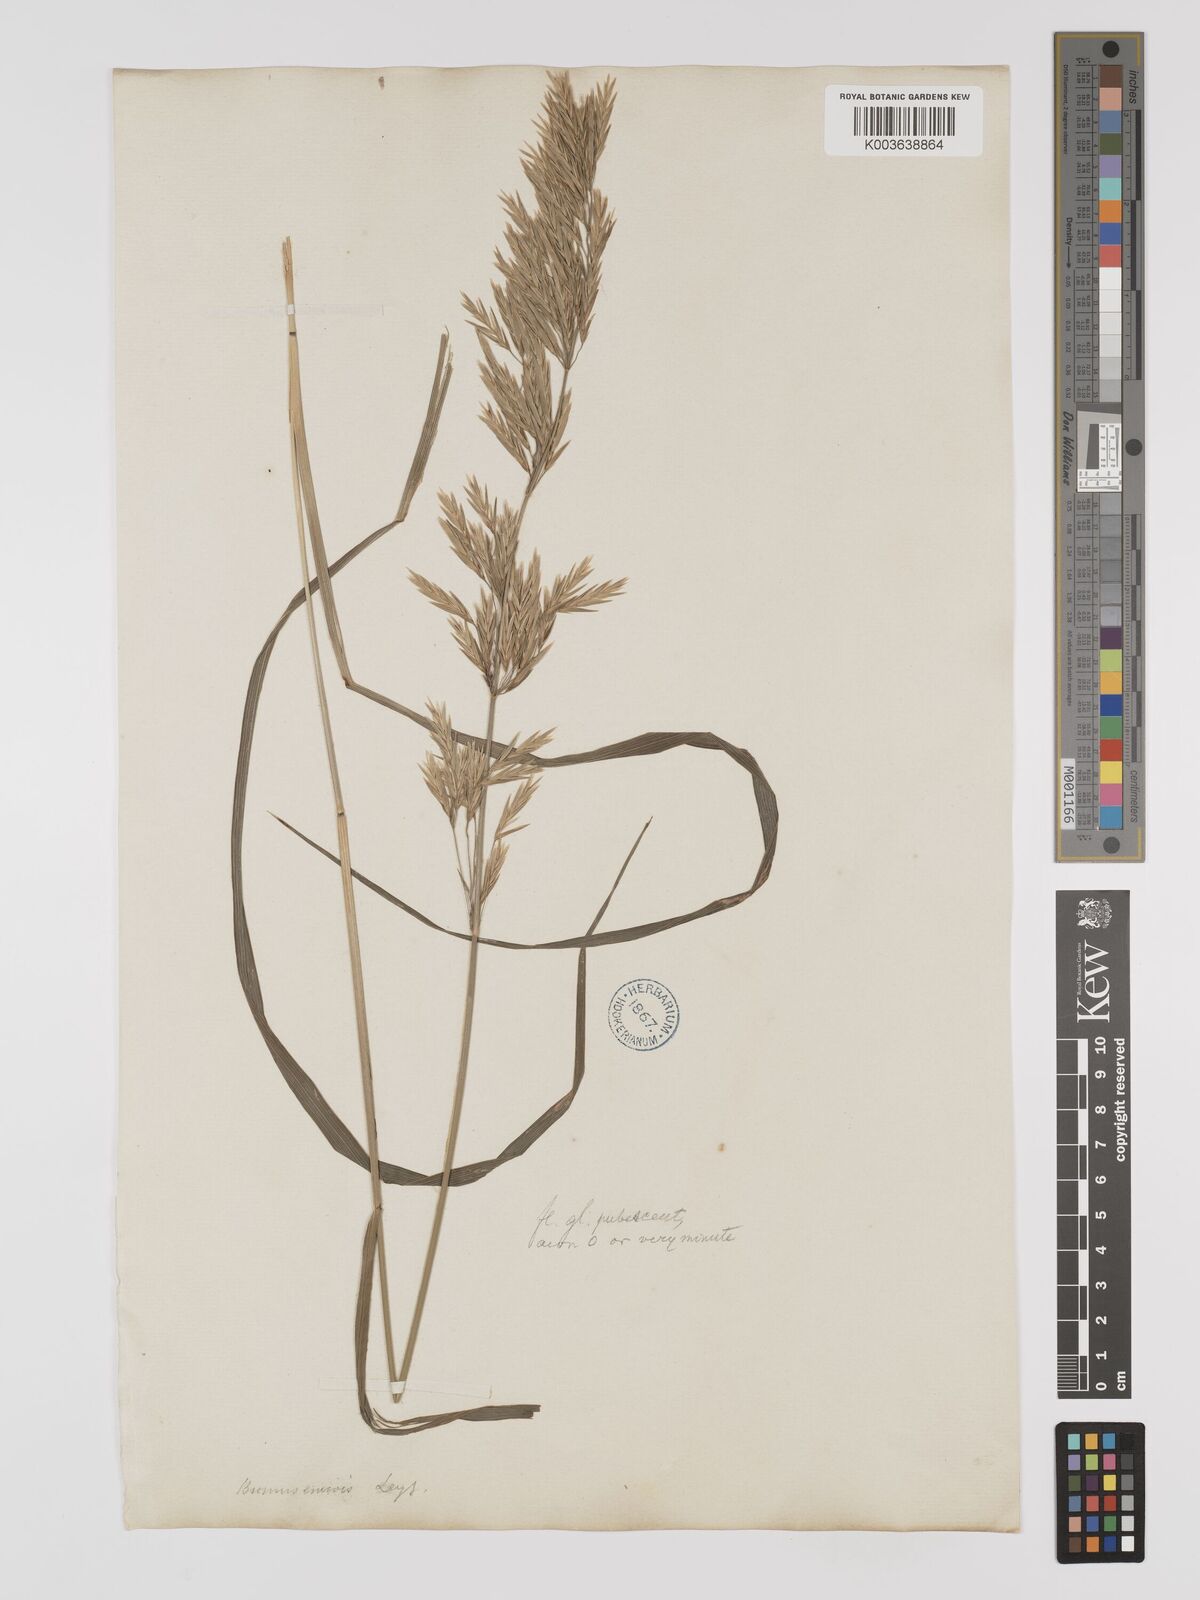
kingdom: Plantae
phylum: Tracheophyta
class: Liliopsida
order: Poales
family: Poaceae
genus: Bromus
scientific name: Bromus inermis
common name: Smooth brome
